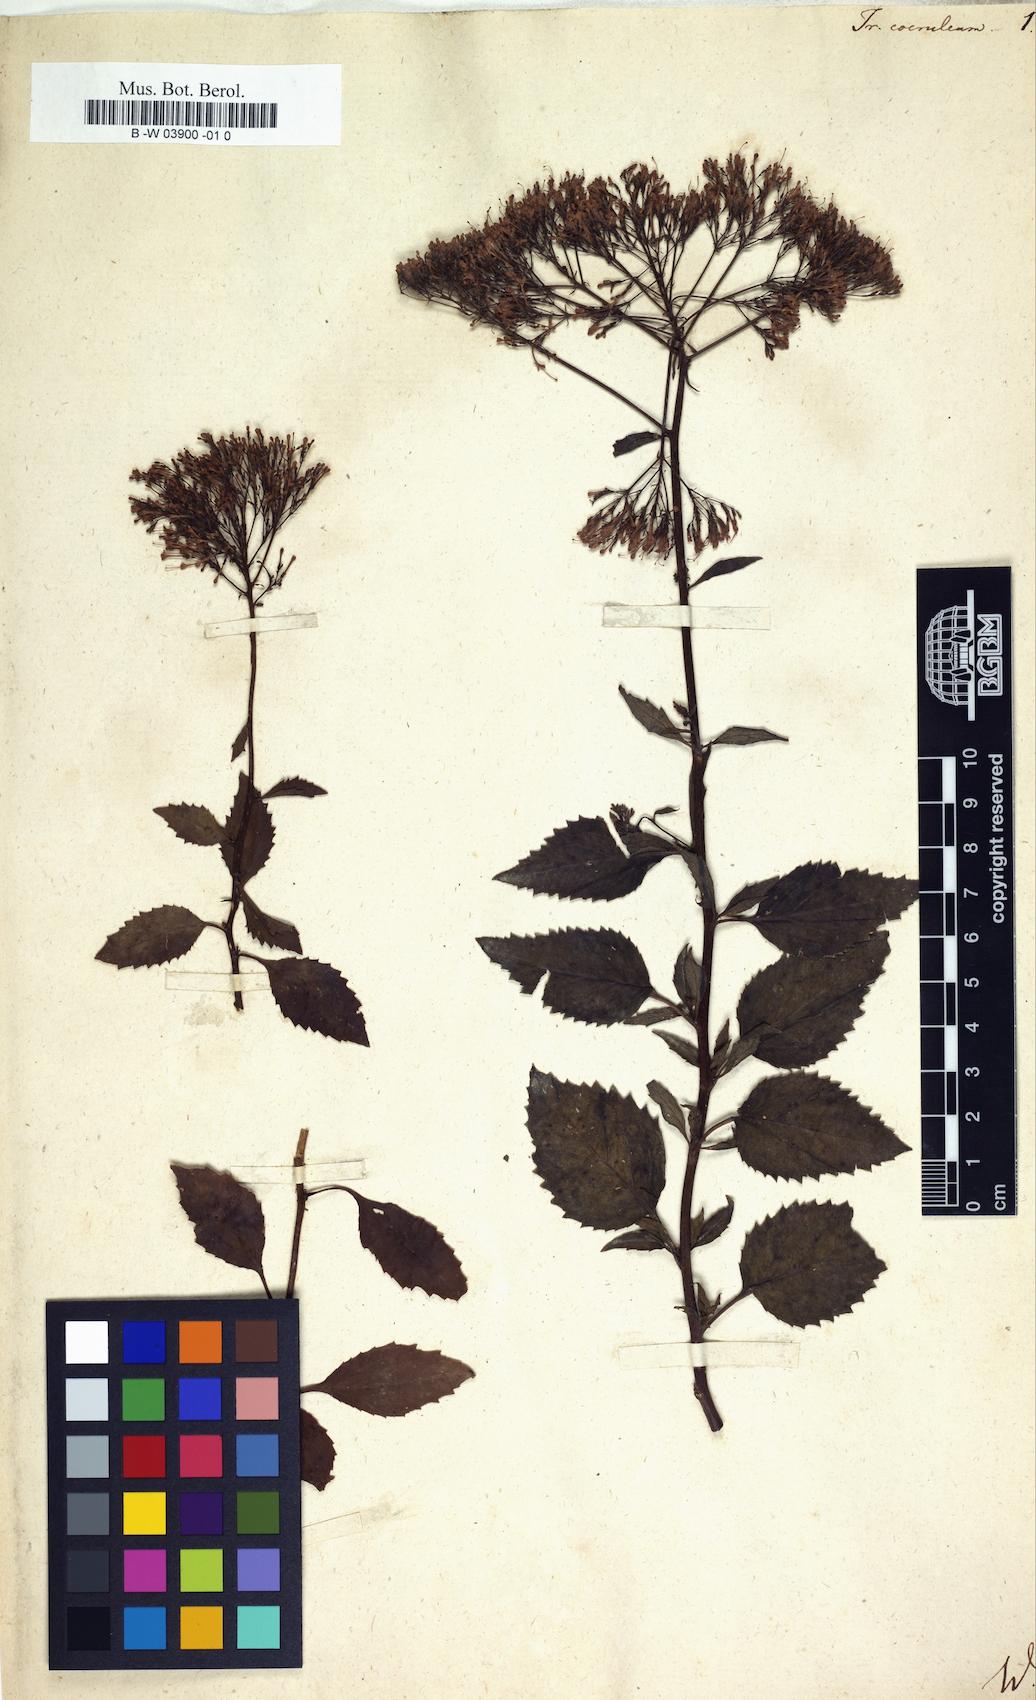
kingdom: Plantae
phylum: Tracheophyta
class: Magnoliopsida
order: Asterales
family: Campanulaceae
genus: Trachelium
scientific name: Trachelium caeruleum
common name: Throatwort
